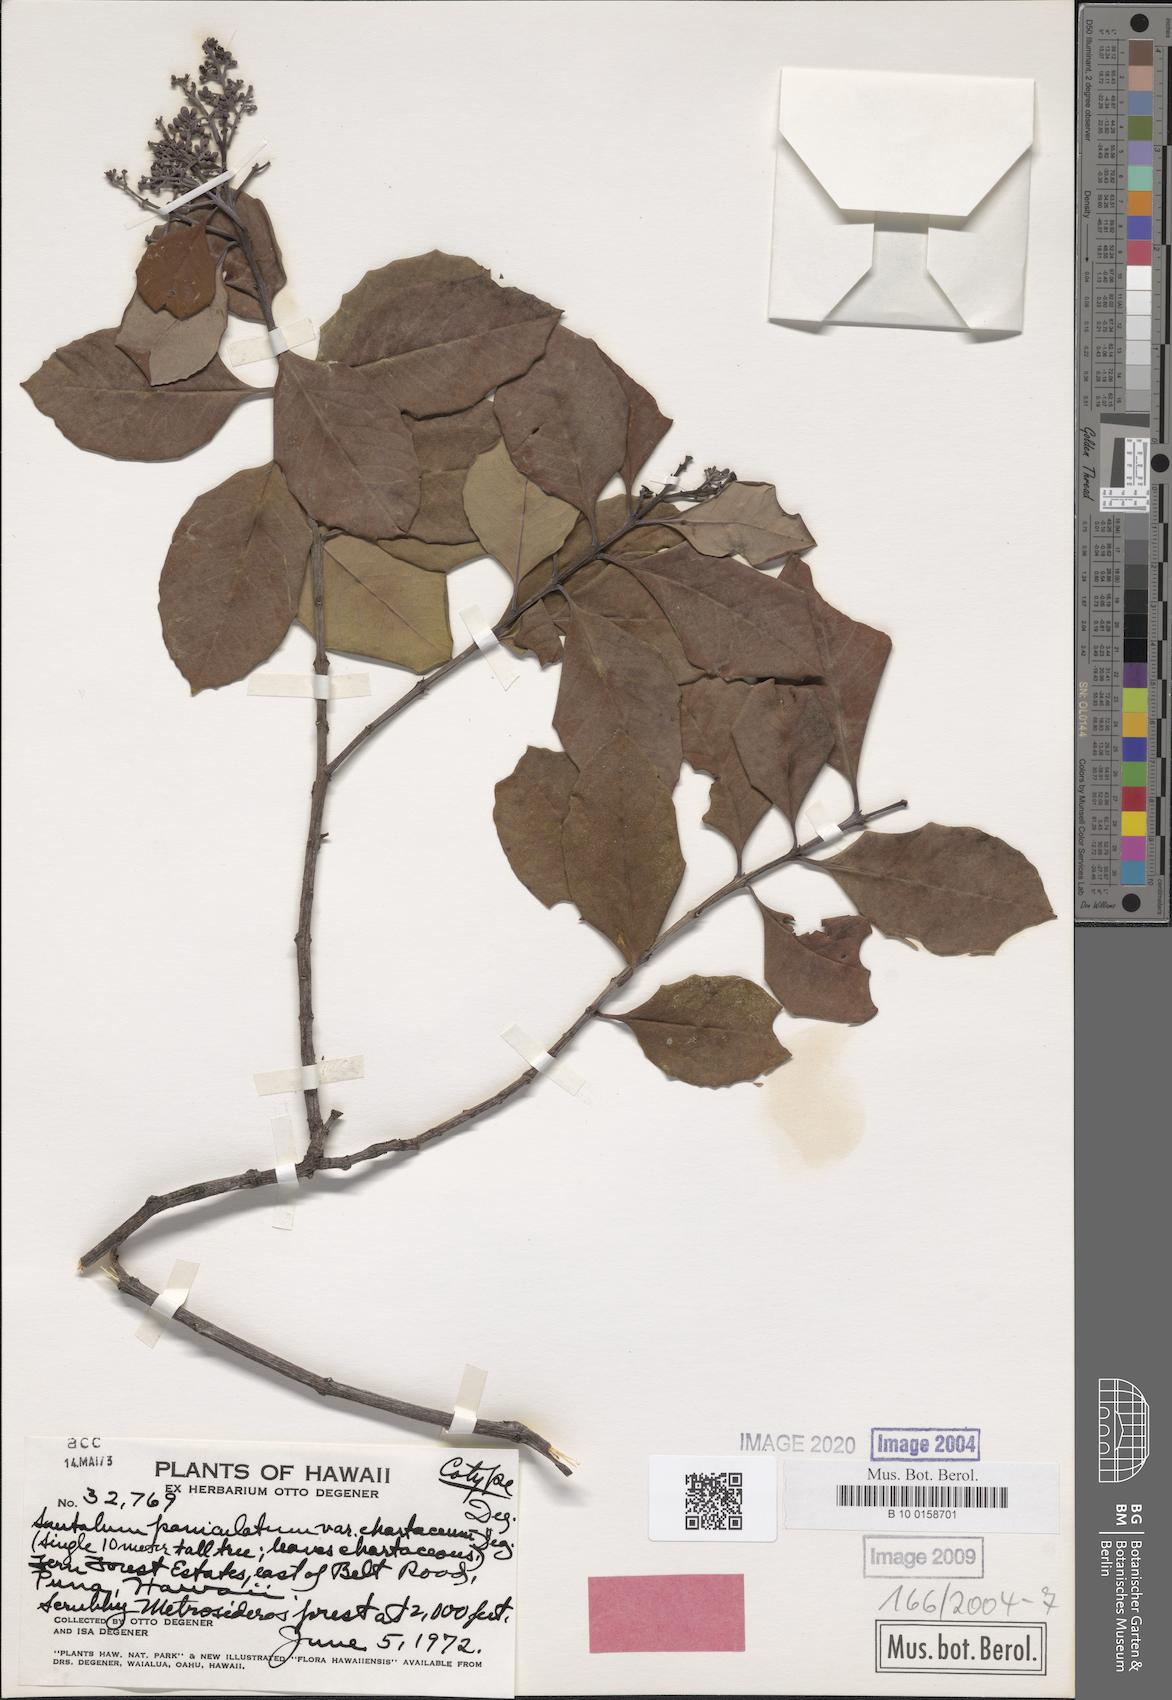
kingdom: Plantae
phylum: Tracheophyta
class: Magnoliopsida
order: Santalales
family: Santalaceae
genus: Santalum
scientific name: Santalum paniculatum
